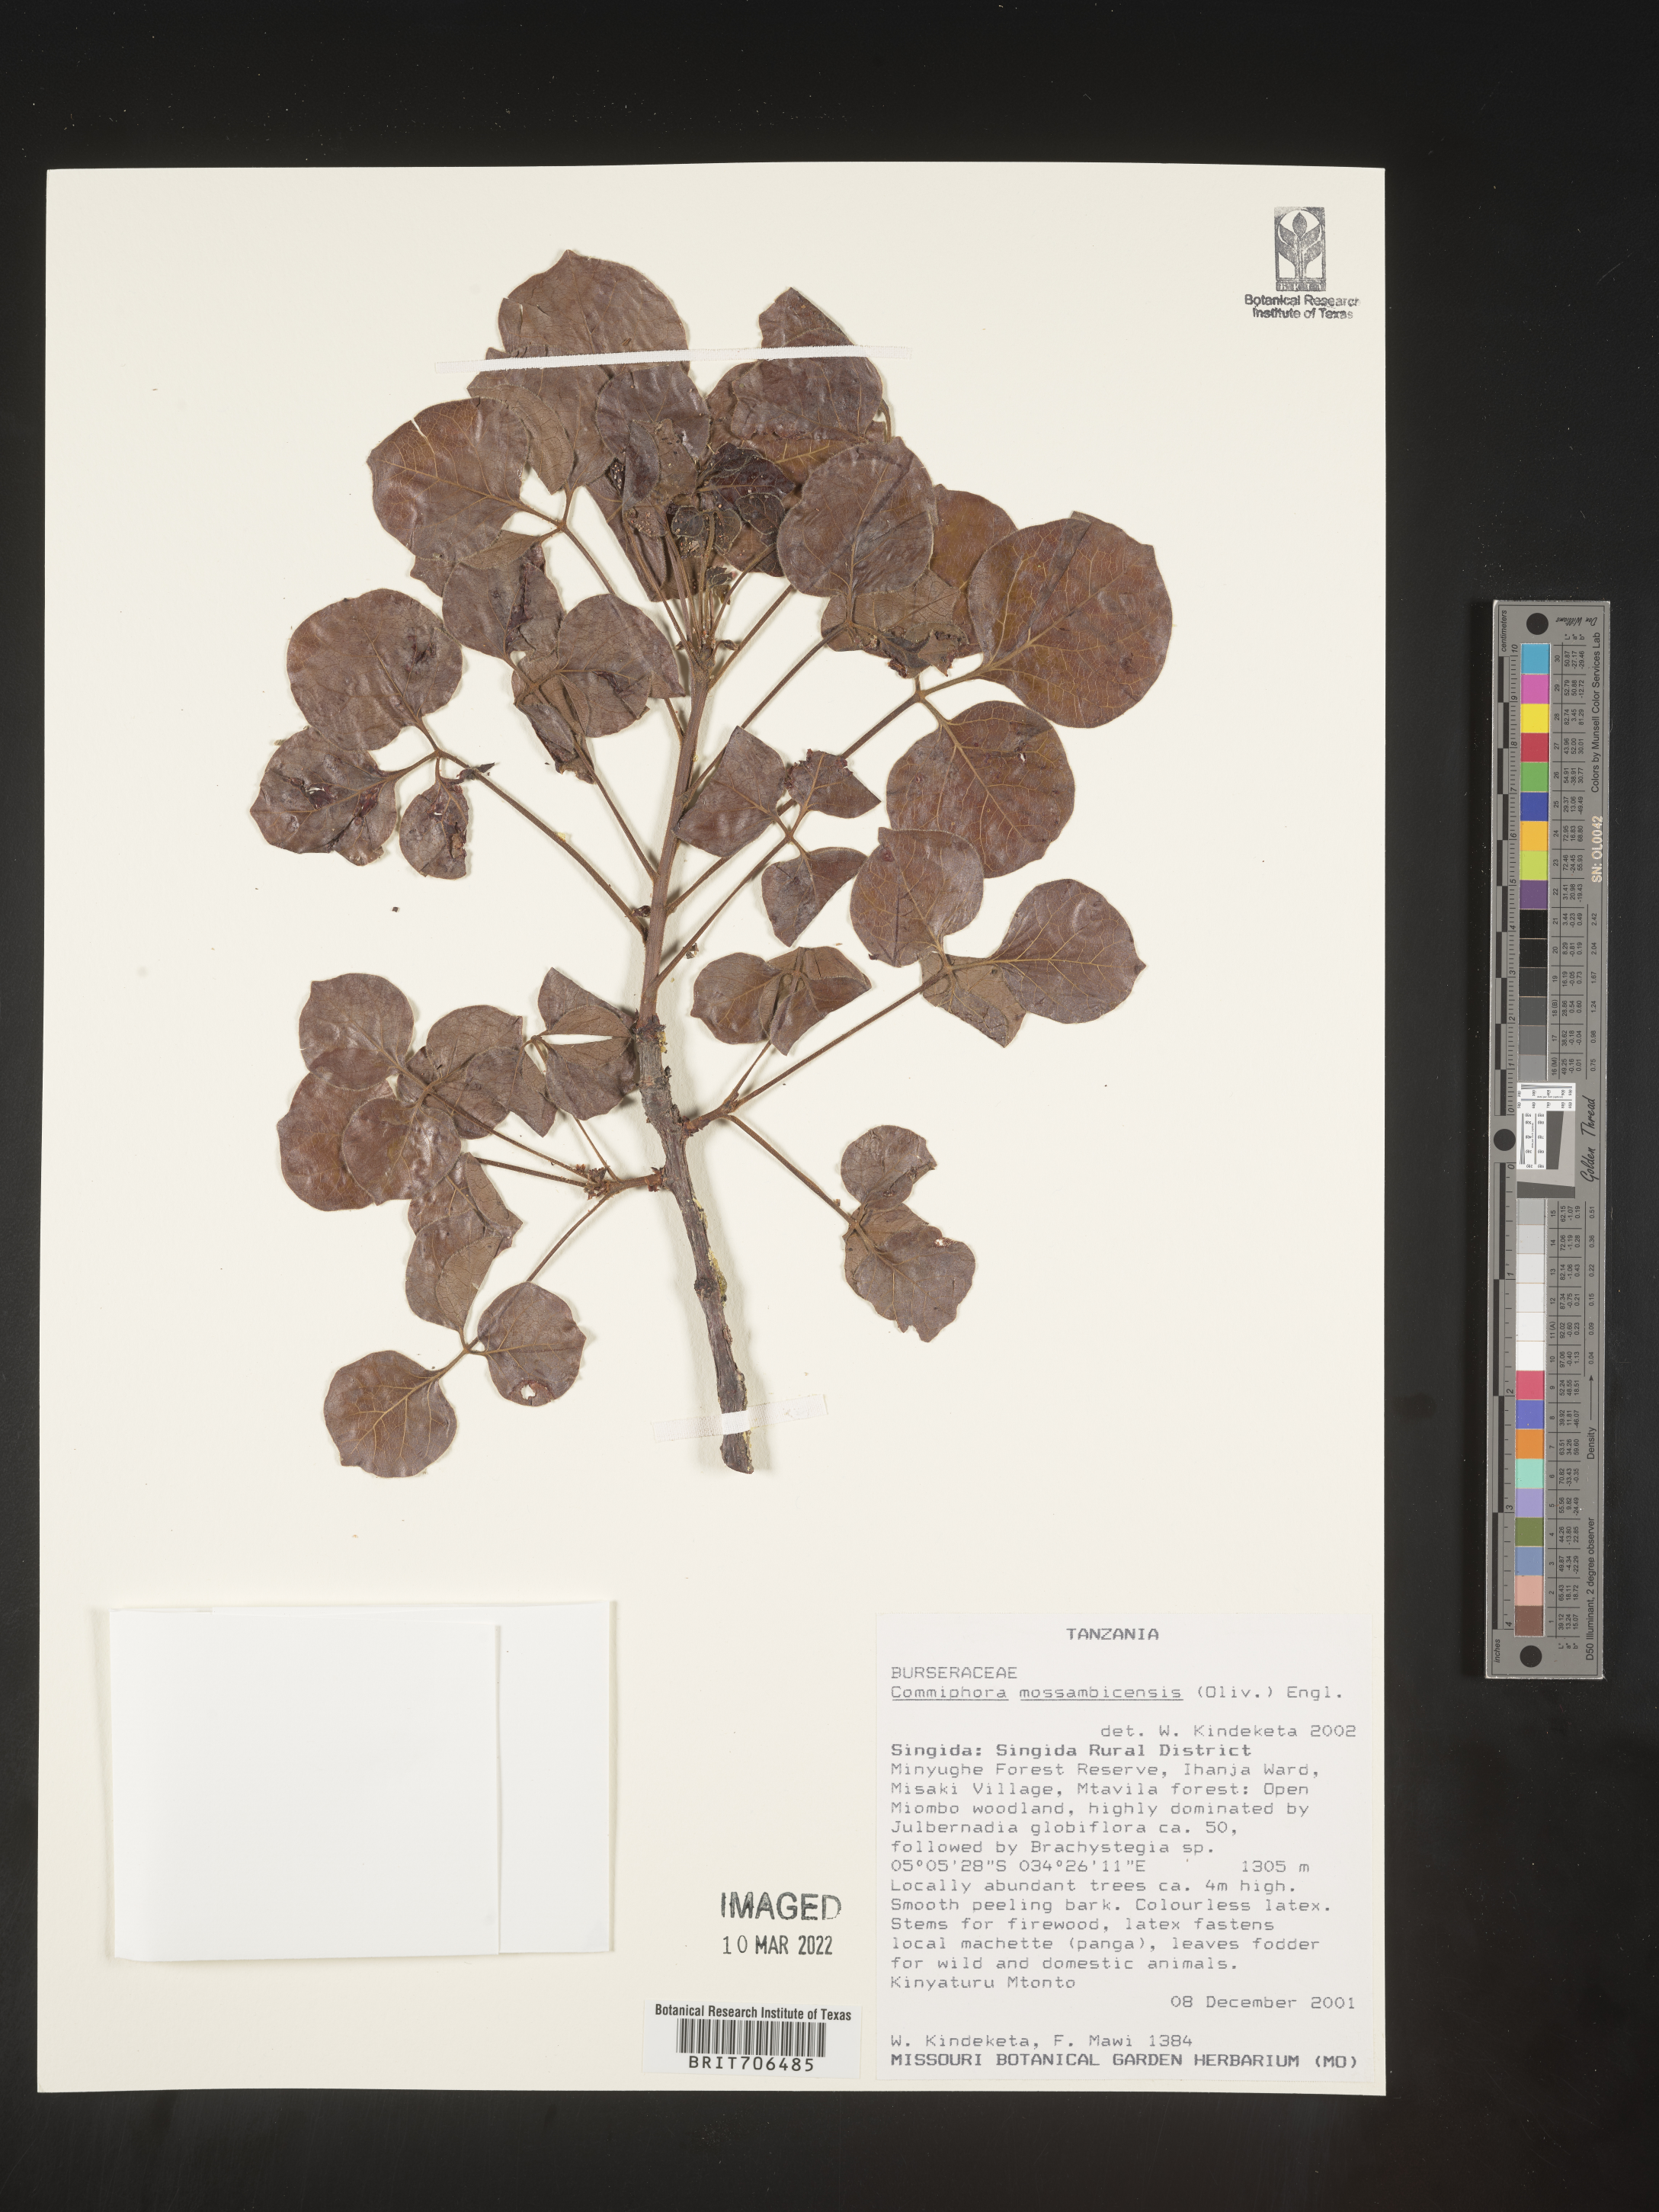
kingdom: Plantae
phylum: Tracheophyta
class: Magnoliopsida
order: Sapindales
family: Burseraceae
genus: Commiphora
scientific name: Commiphora
